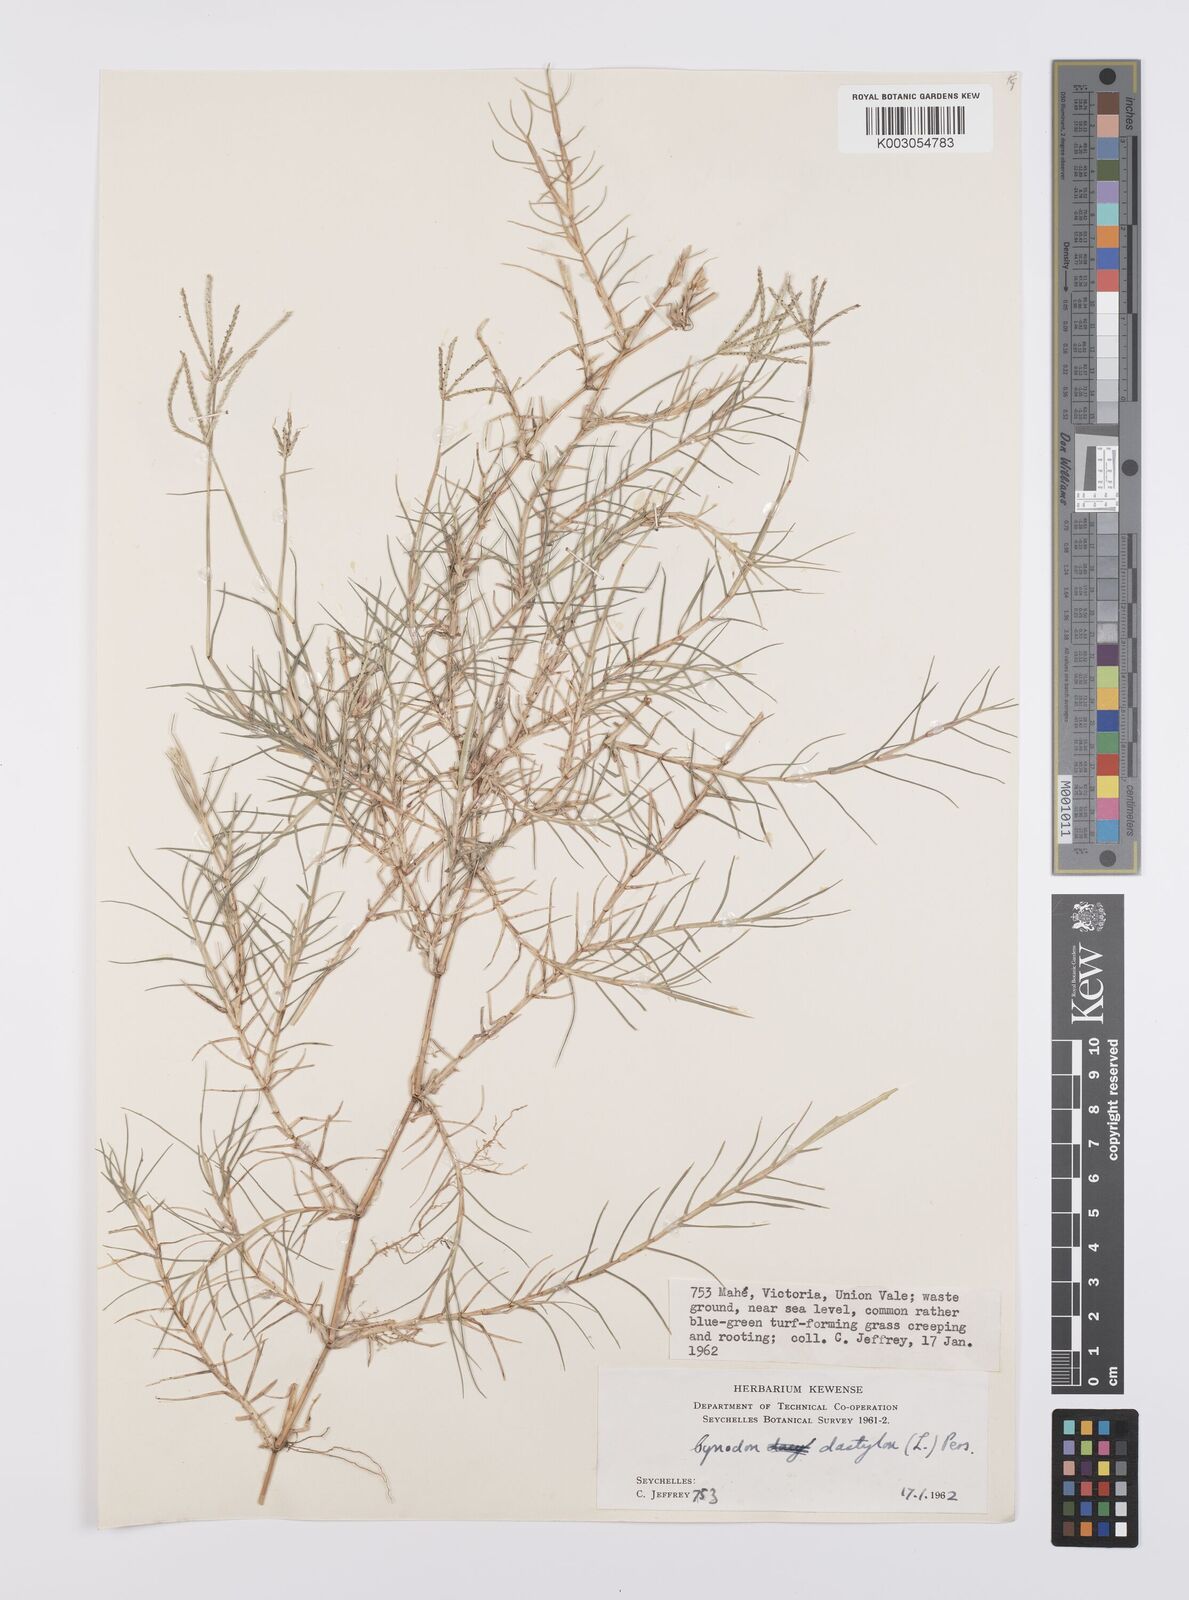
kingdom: Plantae
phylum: Tracheophyta
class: Liliopsida
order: Poales
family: Poaceae
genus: Cynodon
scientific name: Cynodon dactylon
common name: Bermuda grass
